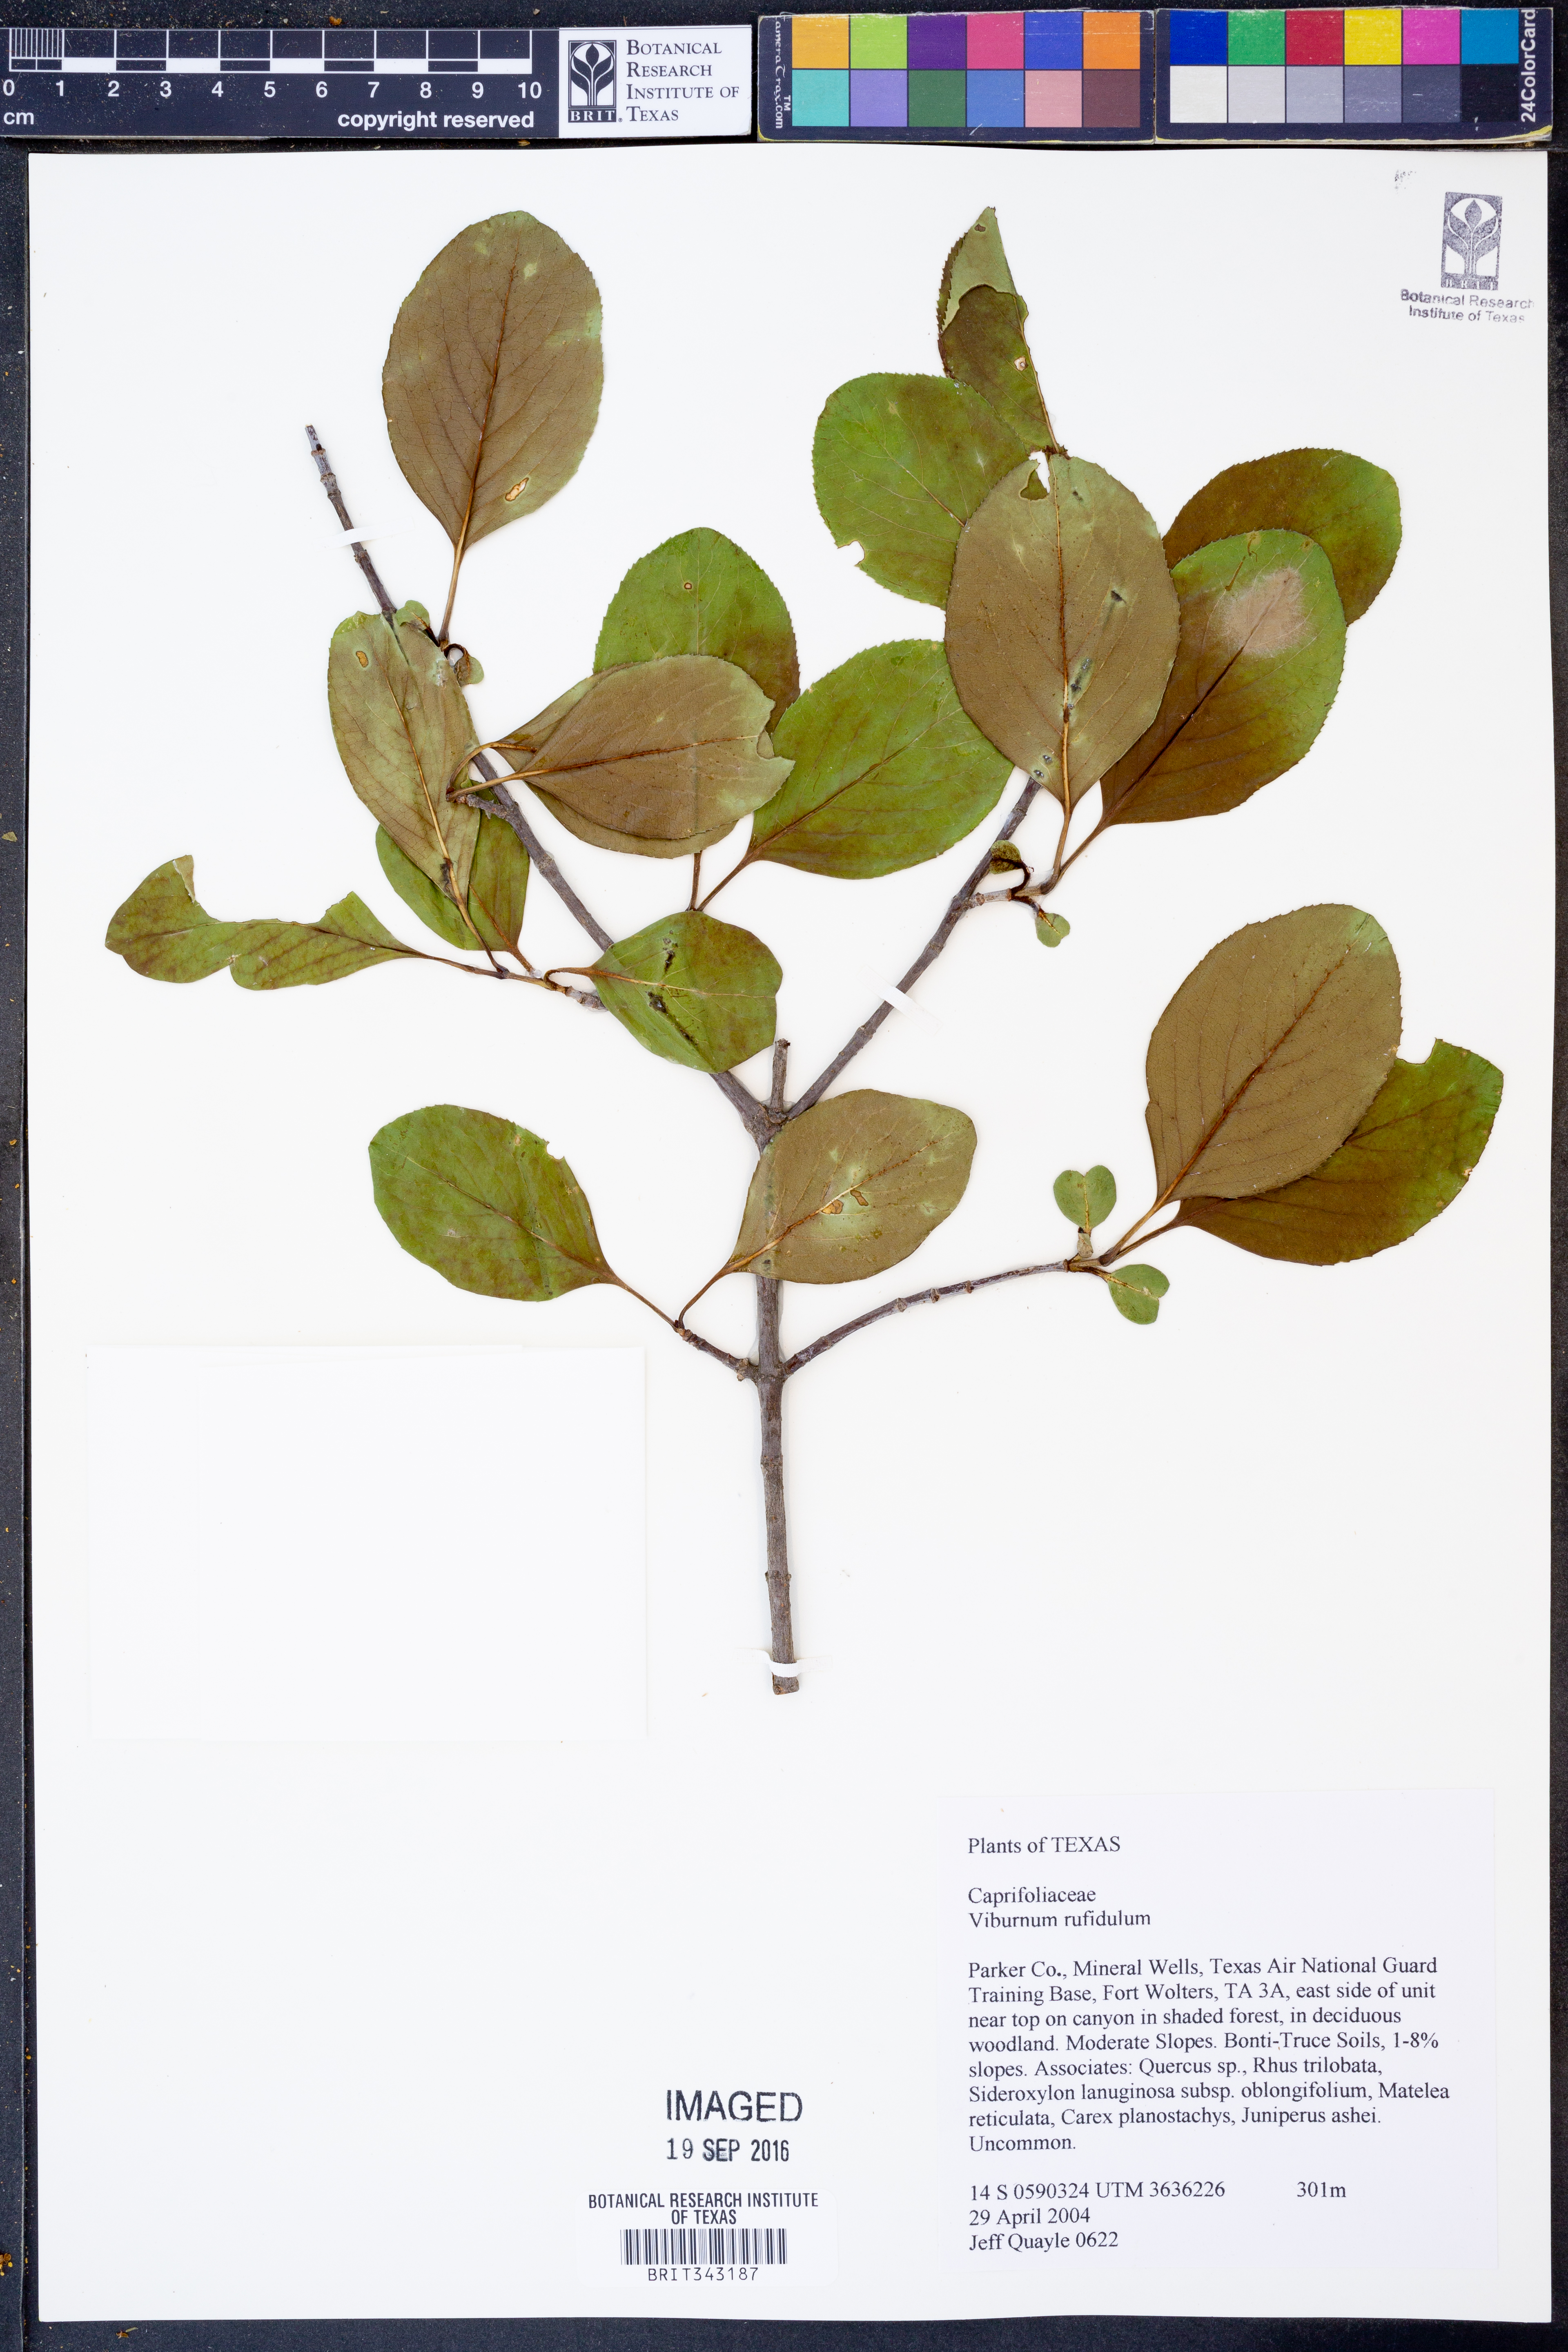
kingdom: Plantae
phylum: Tracheophyta
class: Magnoliopsida
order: Dipsacales
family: Viburnaceae
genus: Viburnum
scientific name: Viburnum rufidulum
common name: Blue haw
